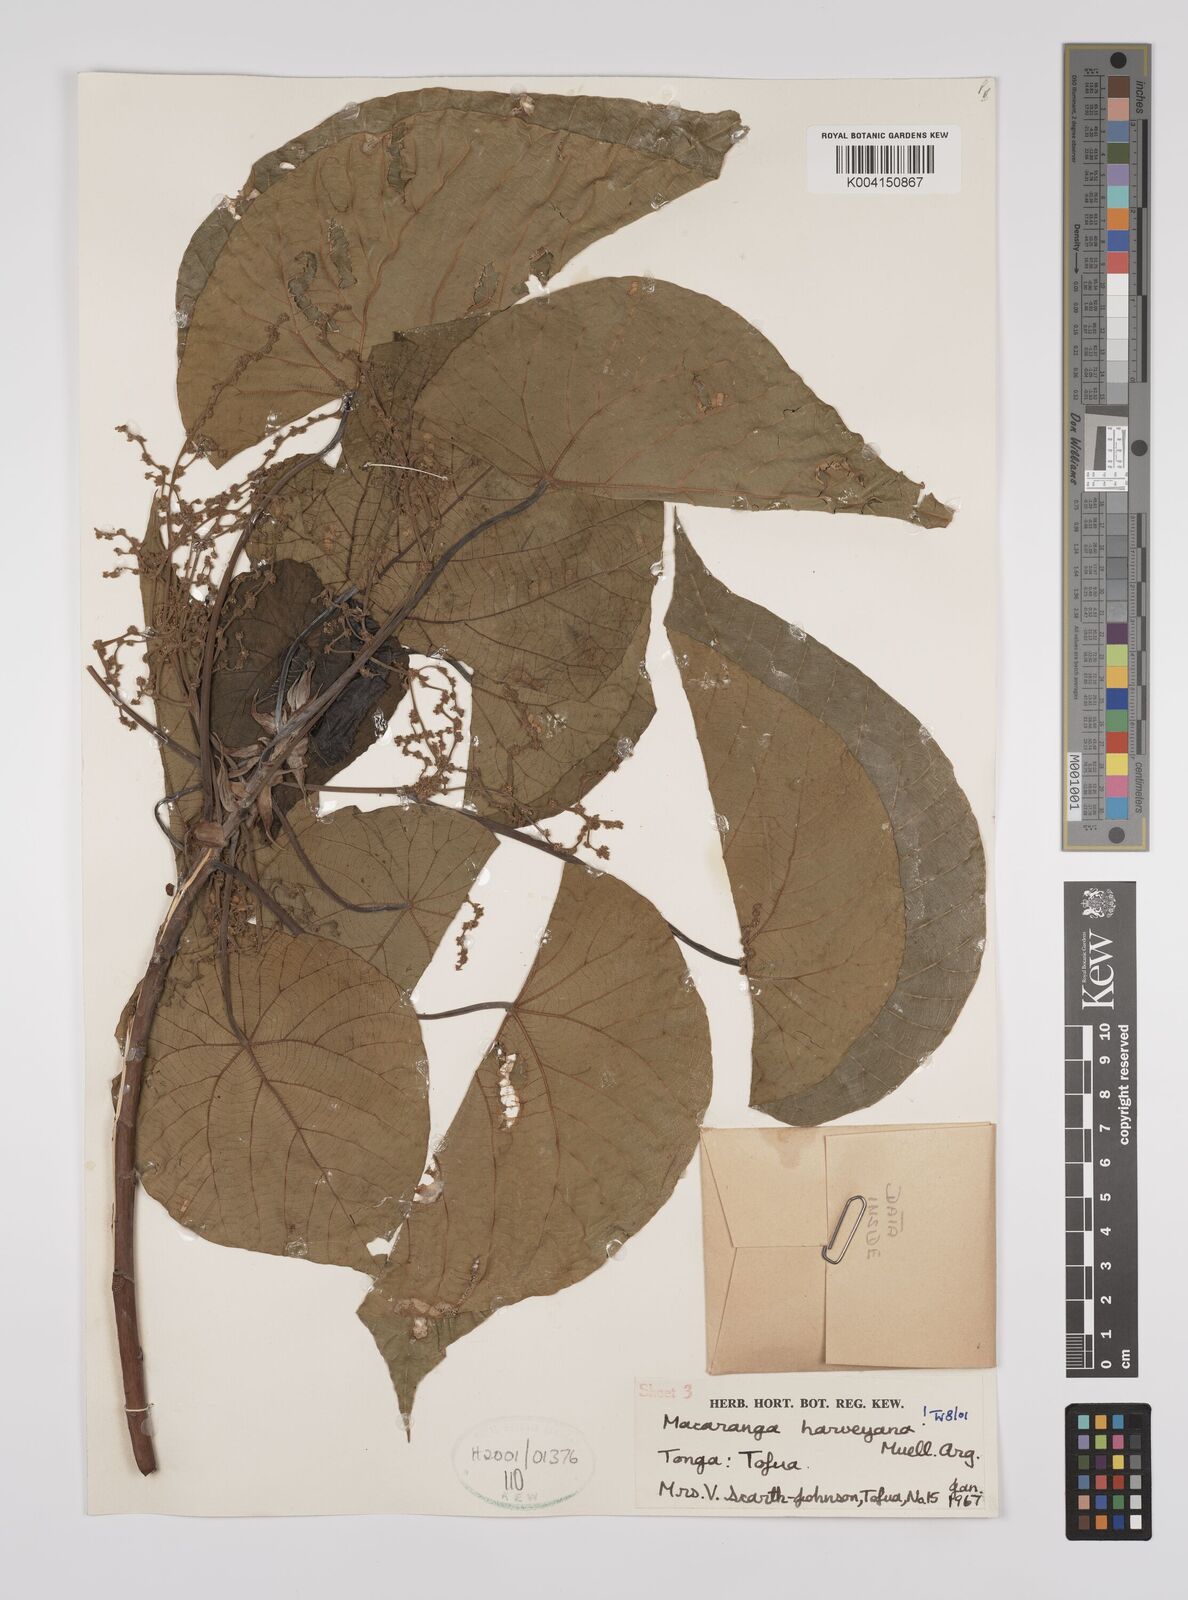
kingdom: Plantae
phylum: Tracheophyta
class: Magnoliopsida
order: Malpighiales
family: Euphorbiaceae
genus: Macaranga
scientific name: Macaranga harveyana
